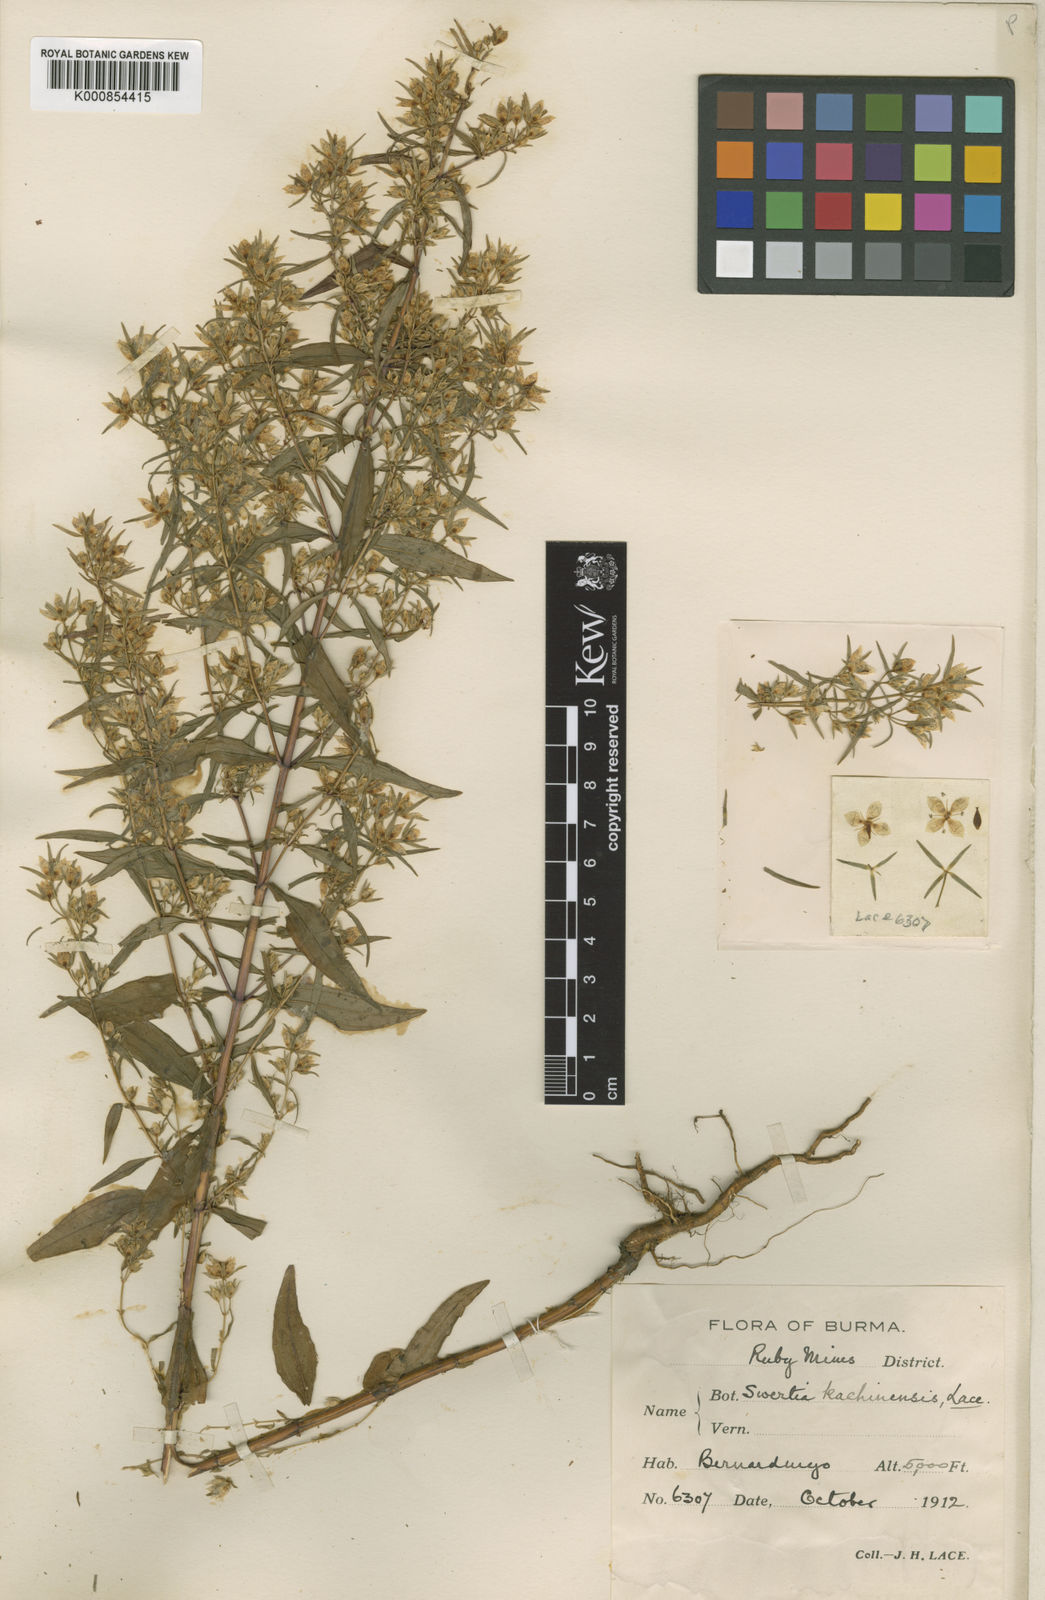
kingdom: Plantae
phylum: Tracheophyta
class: Magnoliopsida
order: Gentianales
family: Gentianaceae
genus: Swertia
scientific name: Swertia angustifolia
